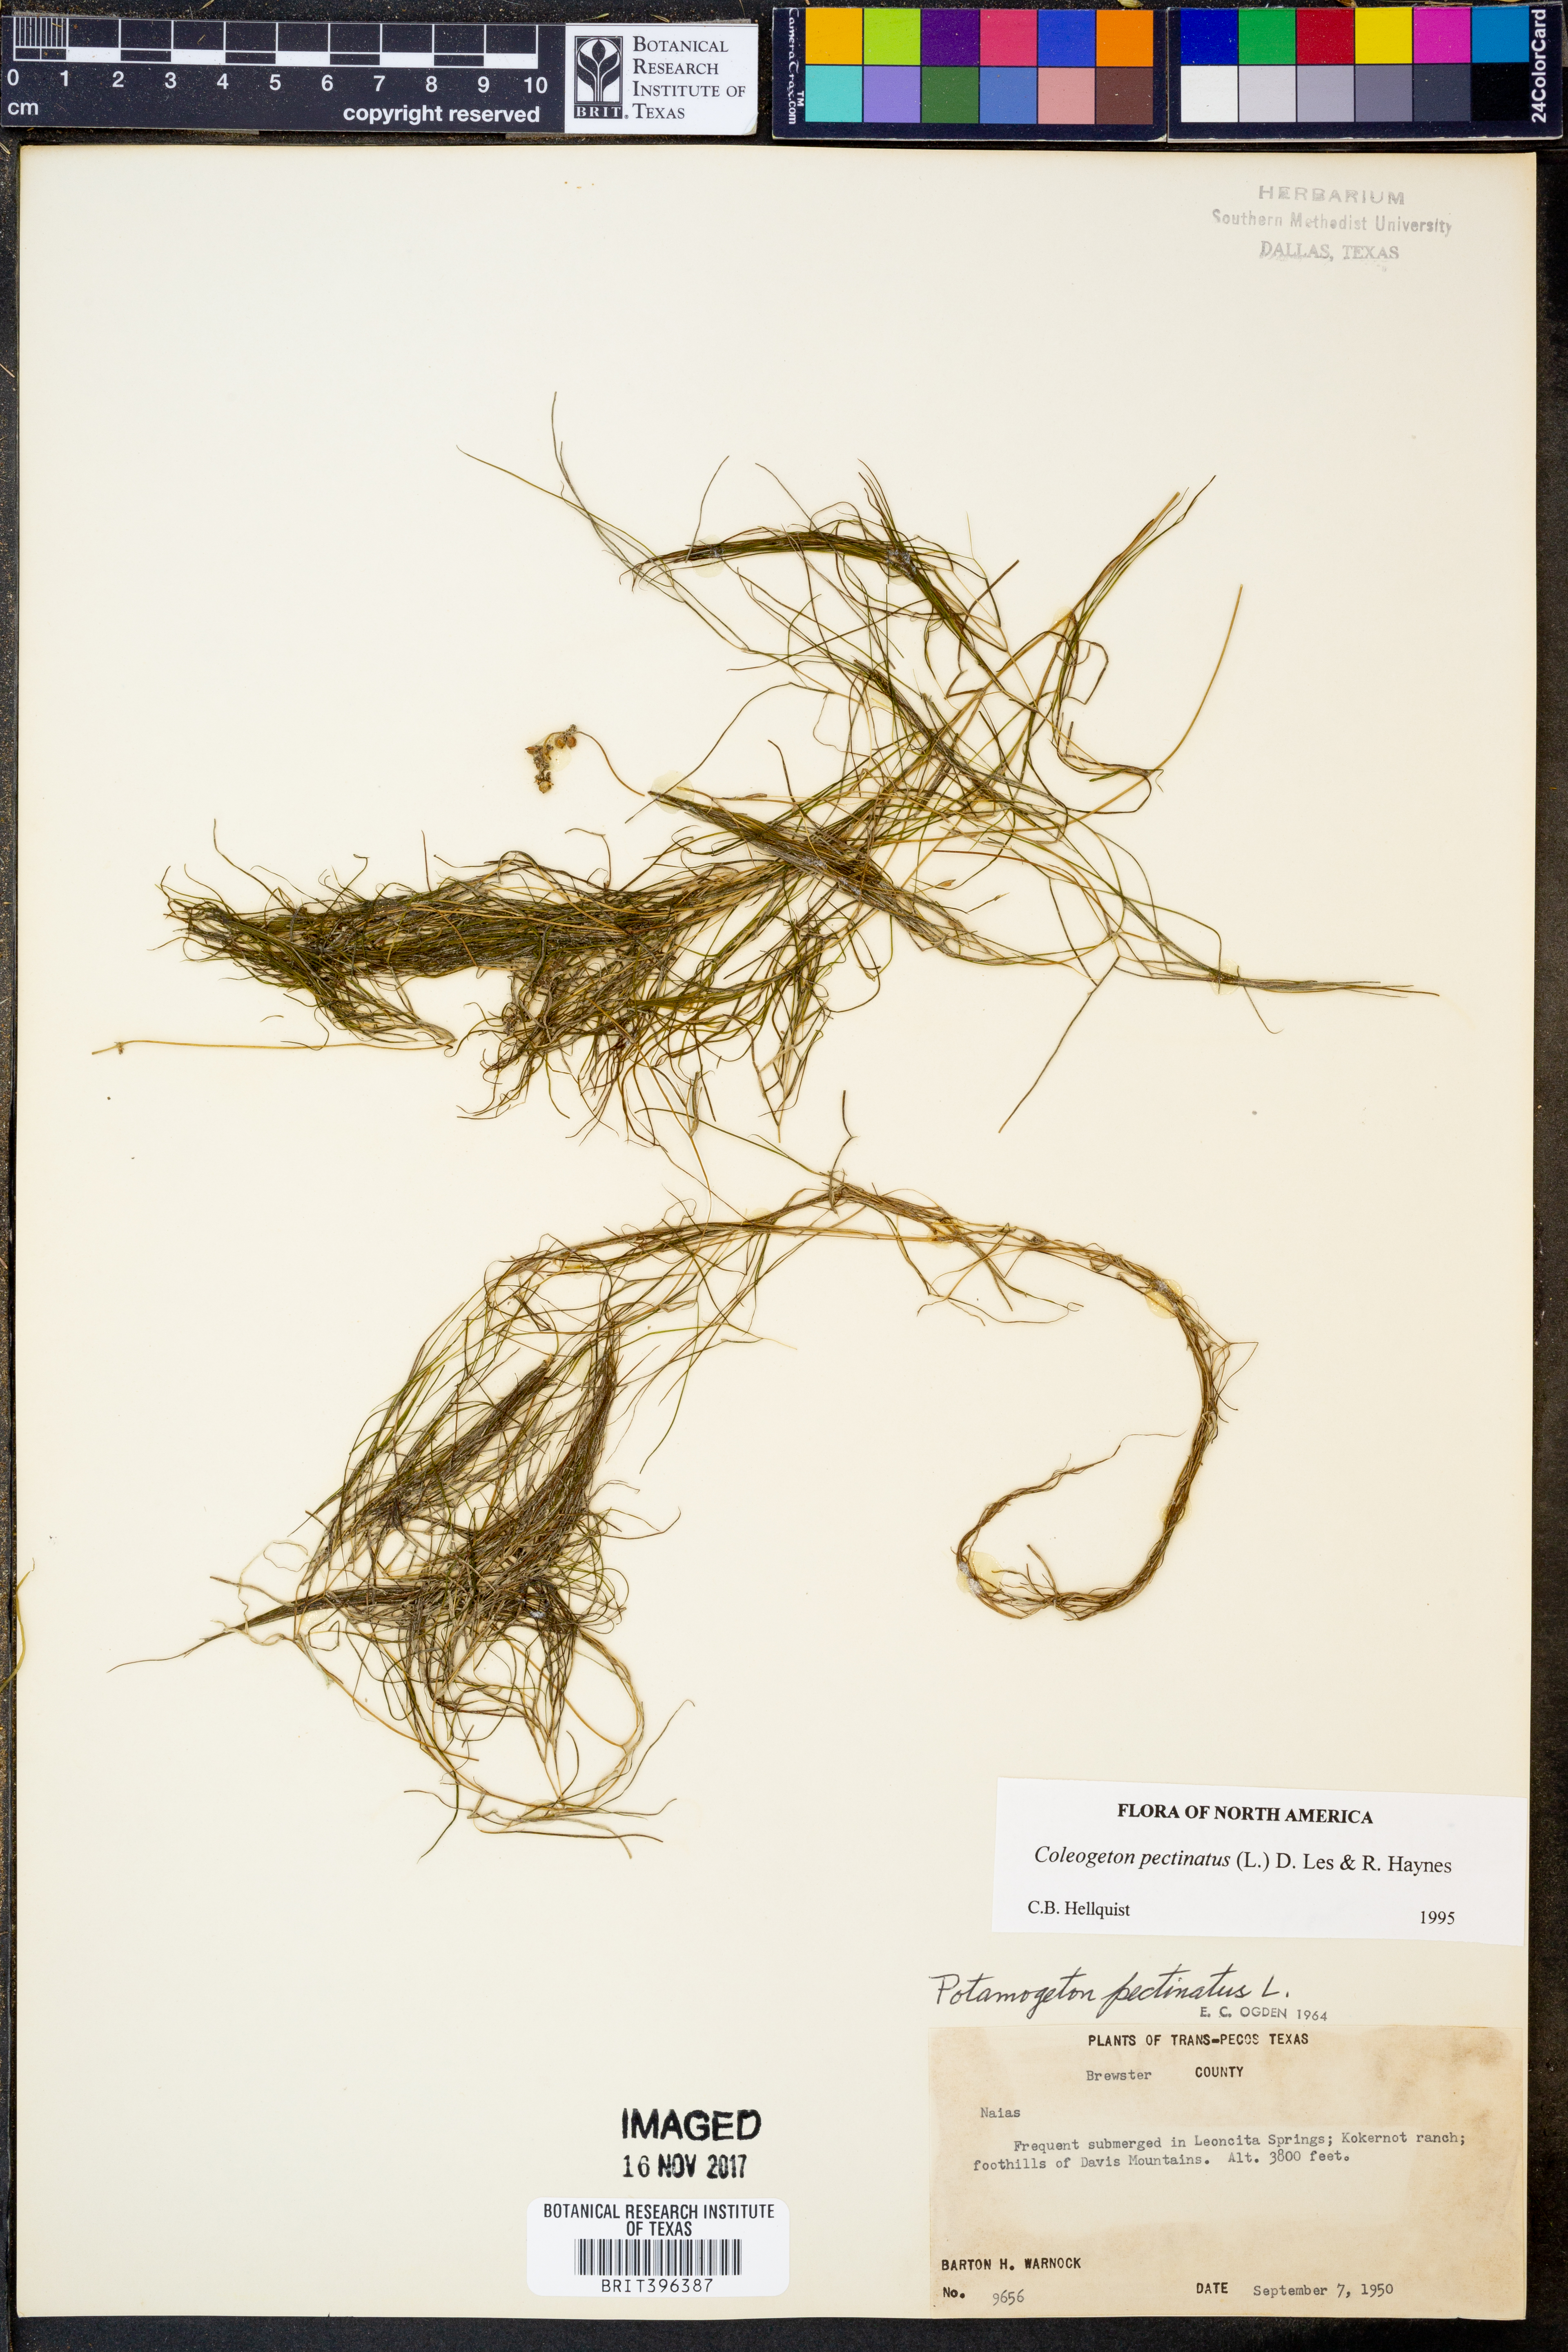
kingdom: Plantae
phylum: Tracheophyta
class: Liliopsida
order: Alismatales
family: Potamogetonaceae
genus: Stuckenia
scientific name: Stuckenia pectinata
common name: Sago pondweed
